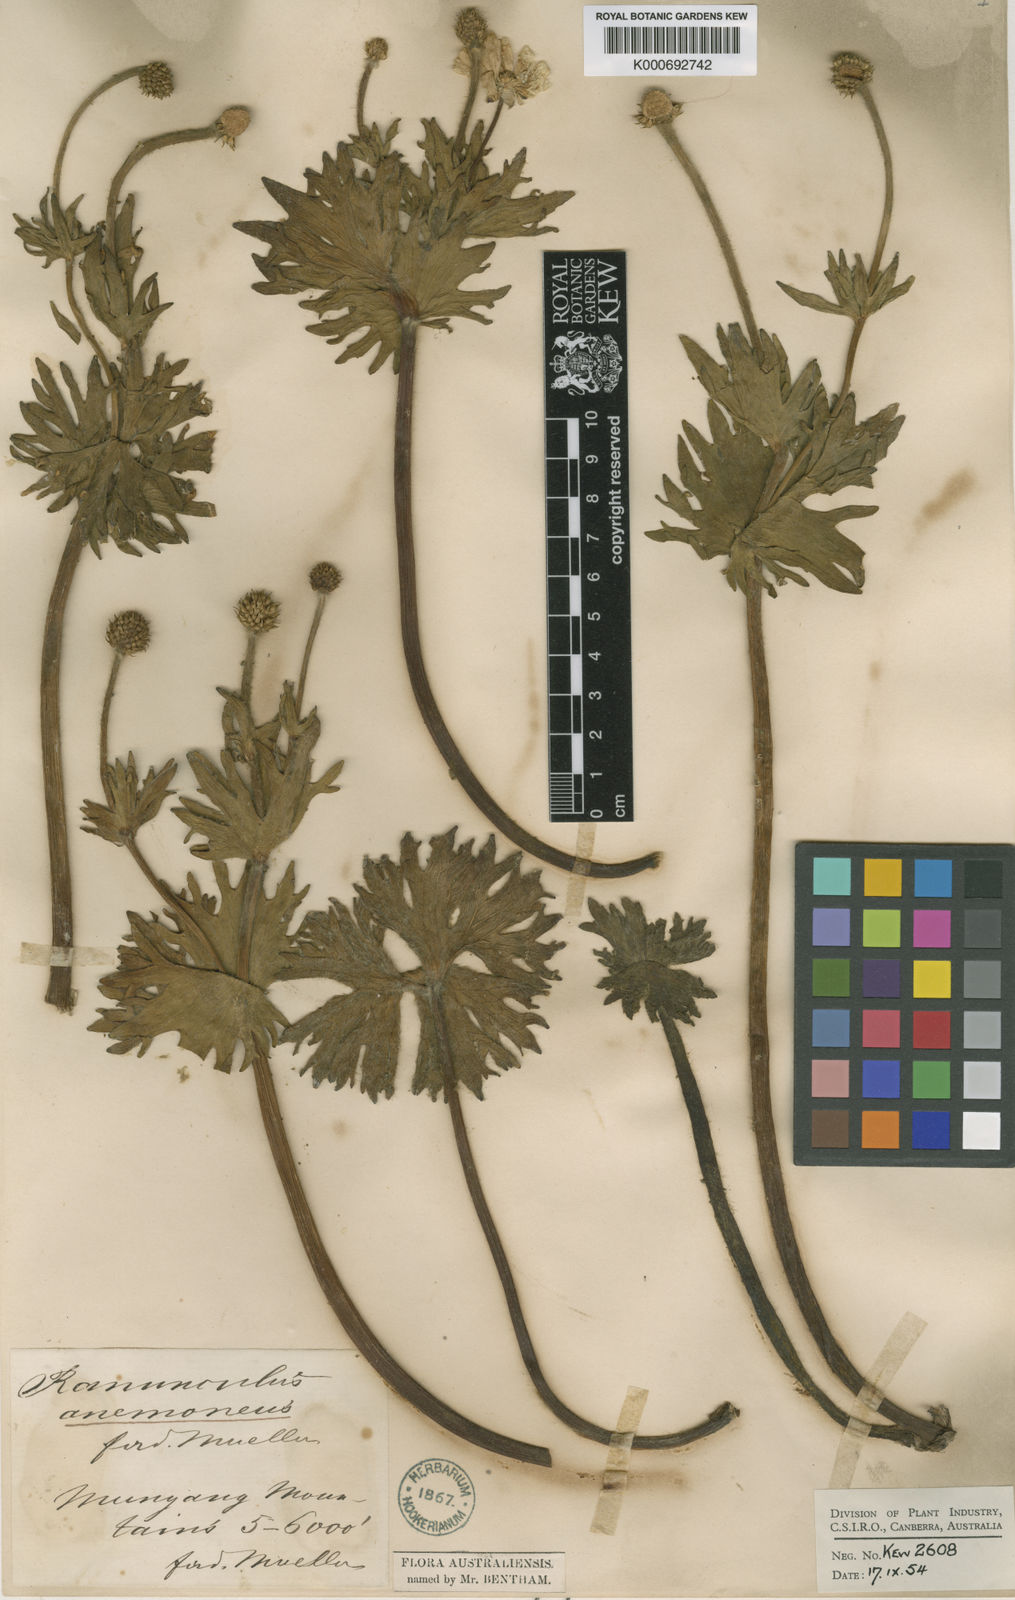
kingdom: Plantae
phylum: Tracheophyta
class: Magnoliopsida
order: Ranunculales
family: Ranunculaceae
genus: Ranunculus
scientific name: Ranunculus anemoneus
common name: Anemone buttercup
